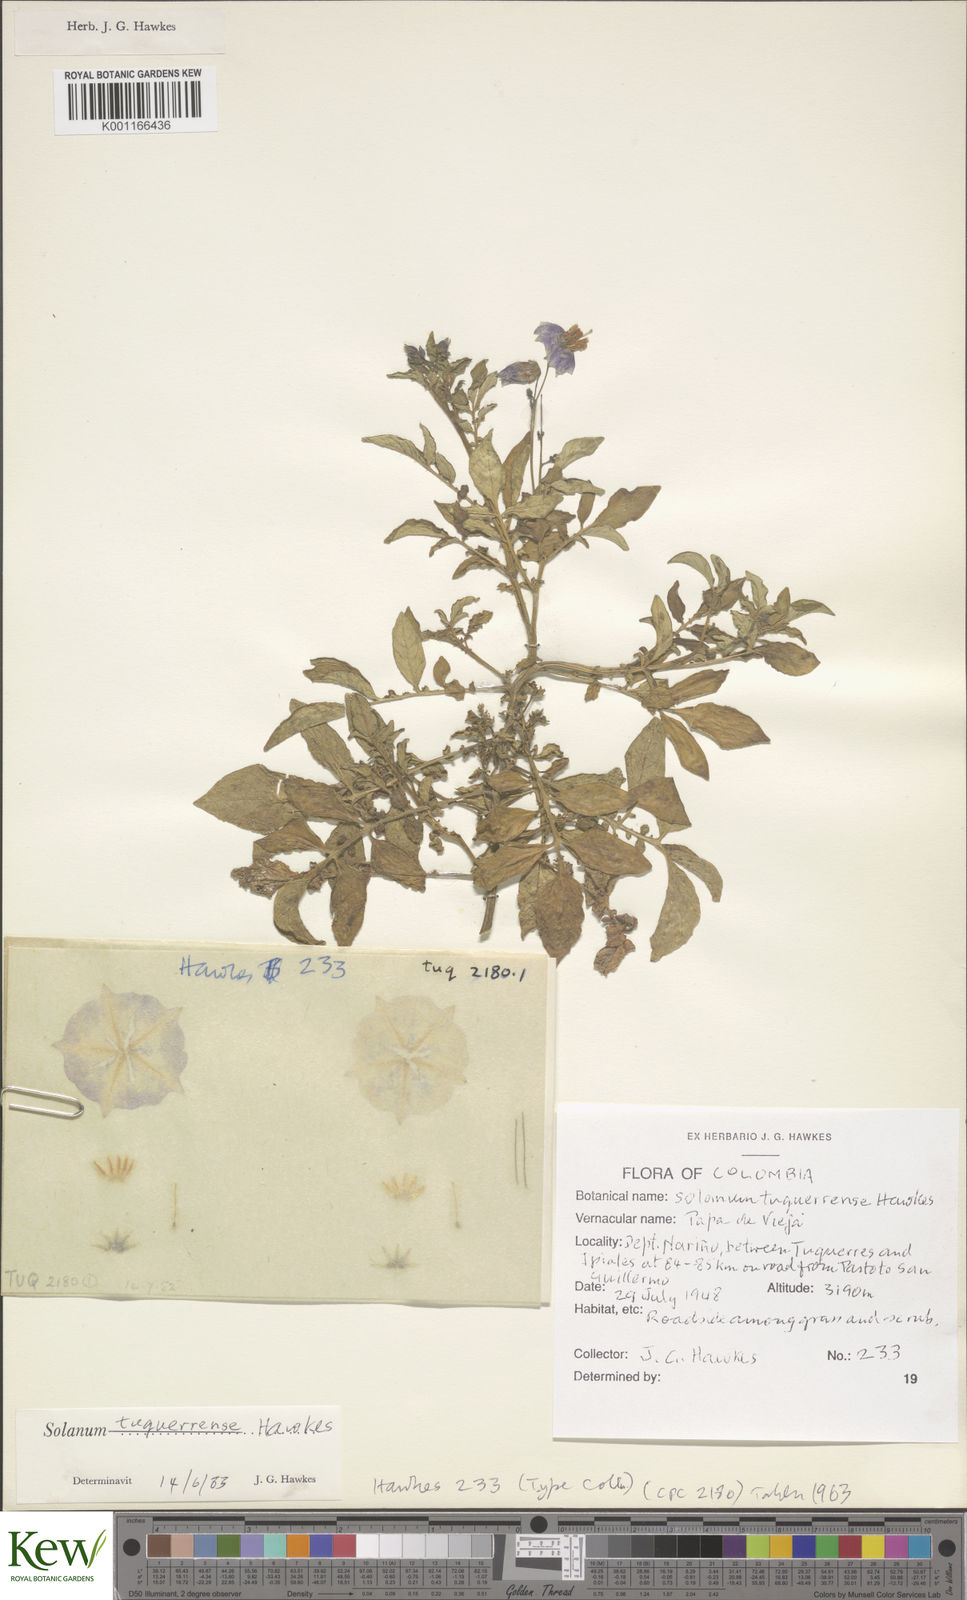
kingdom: Plantae
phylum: Tracheophyta
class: Magnoliopsida
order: Solanales
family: Solanaceae
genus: Solanum
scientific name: Solanum andreanum
